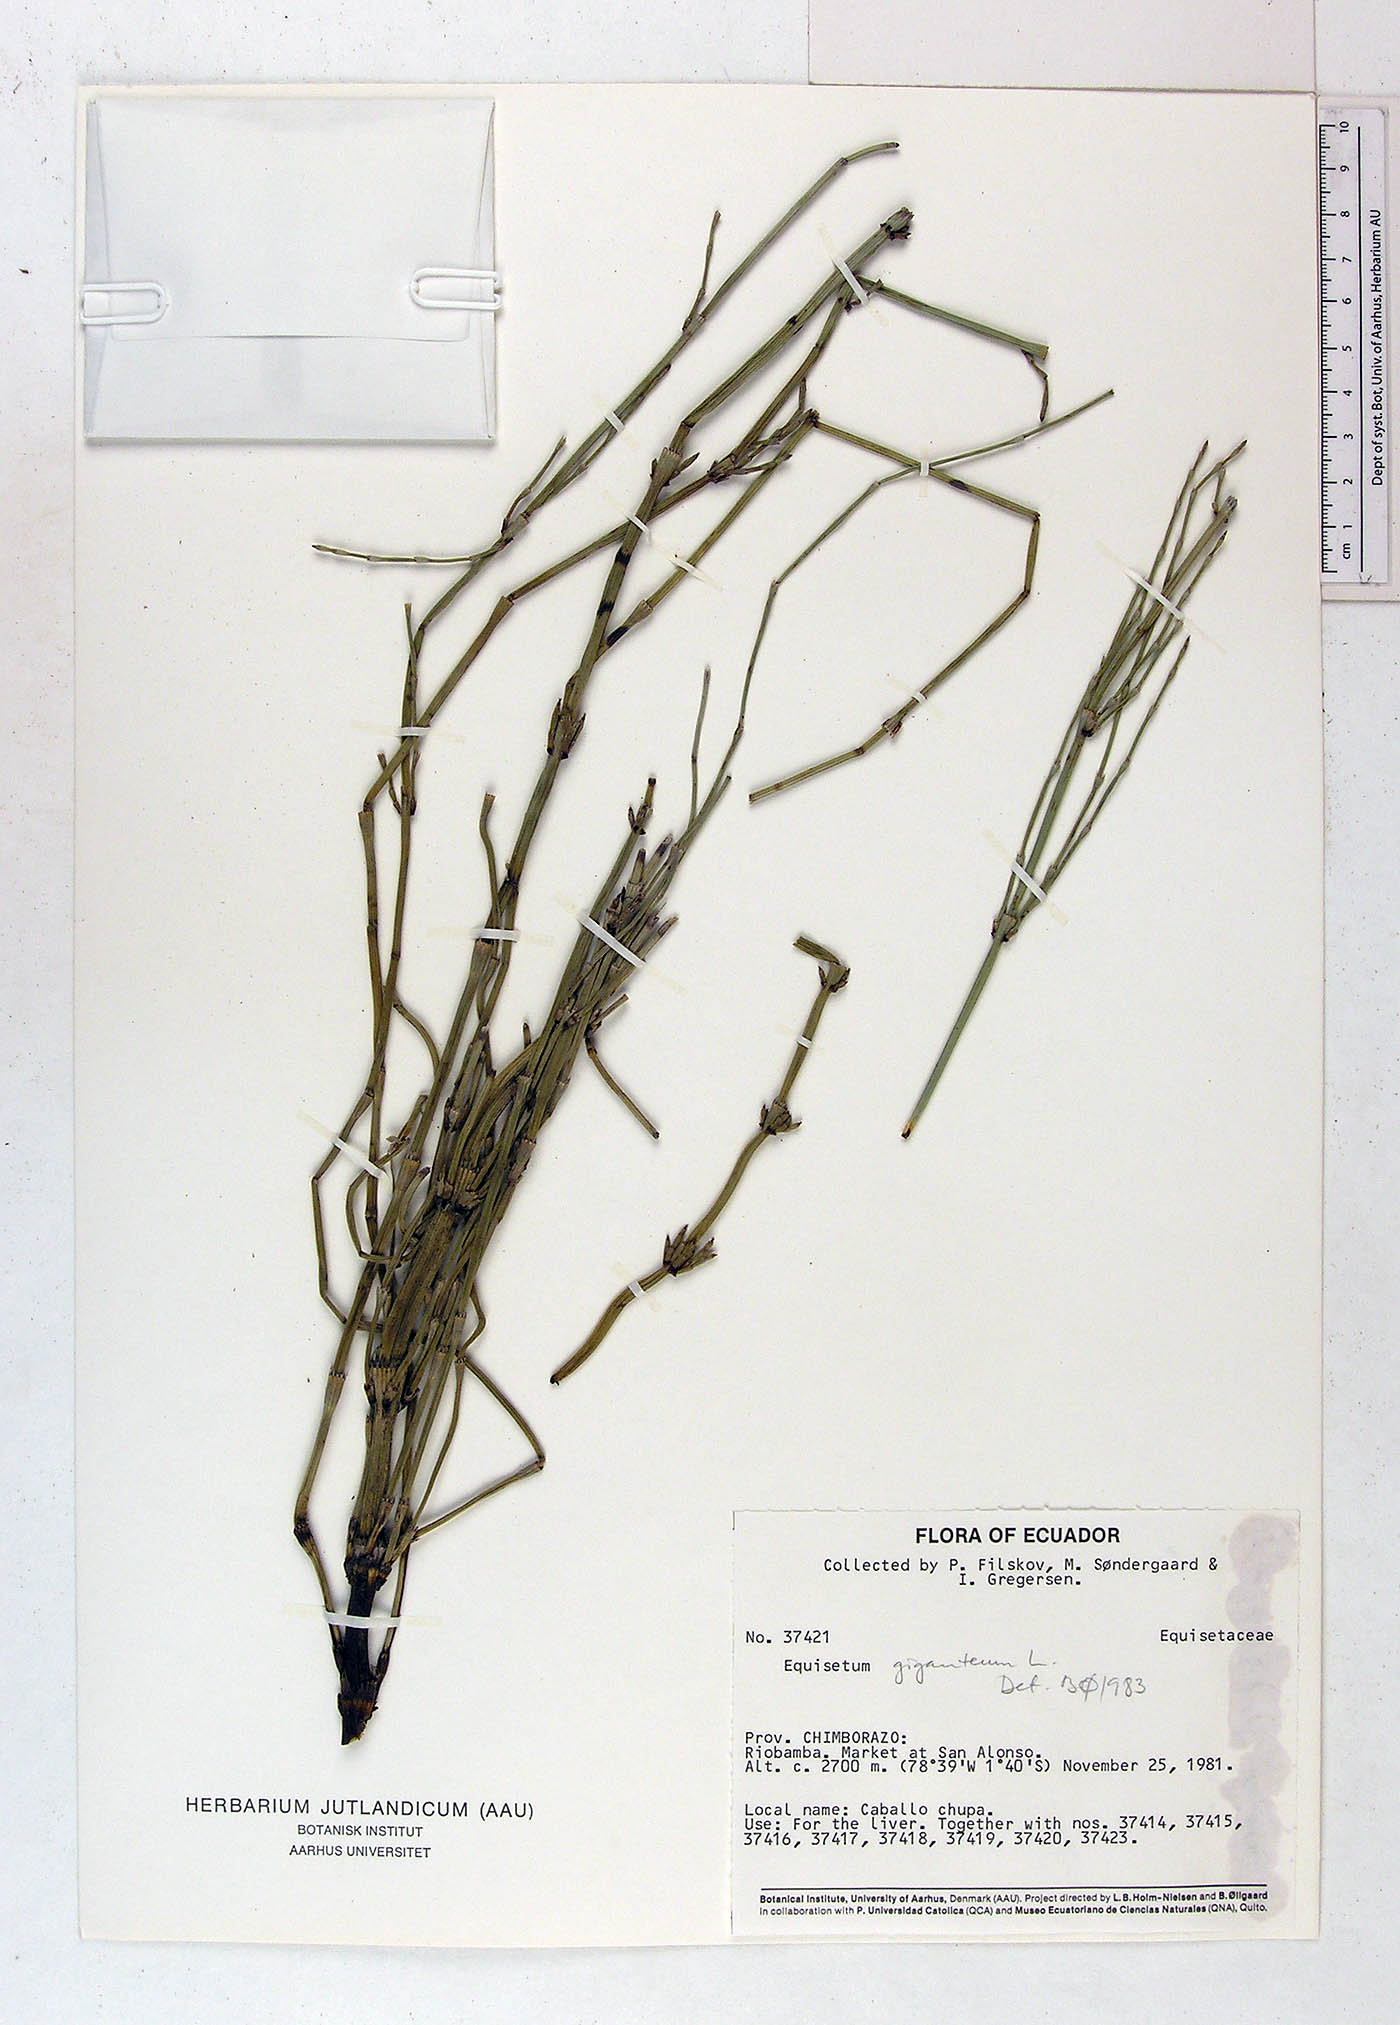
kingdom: Plantae
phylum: Tracheophyta
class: Polypodiopsida
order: Equisetales
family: Equisetaceae
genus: Equisetum
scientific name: Equisetum giganteum
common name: Giant horsetail
